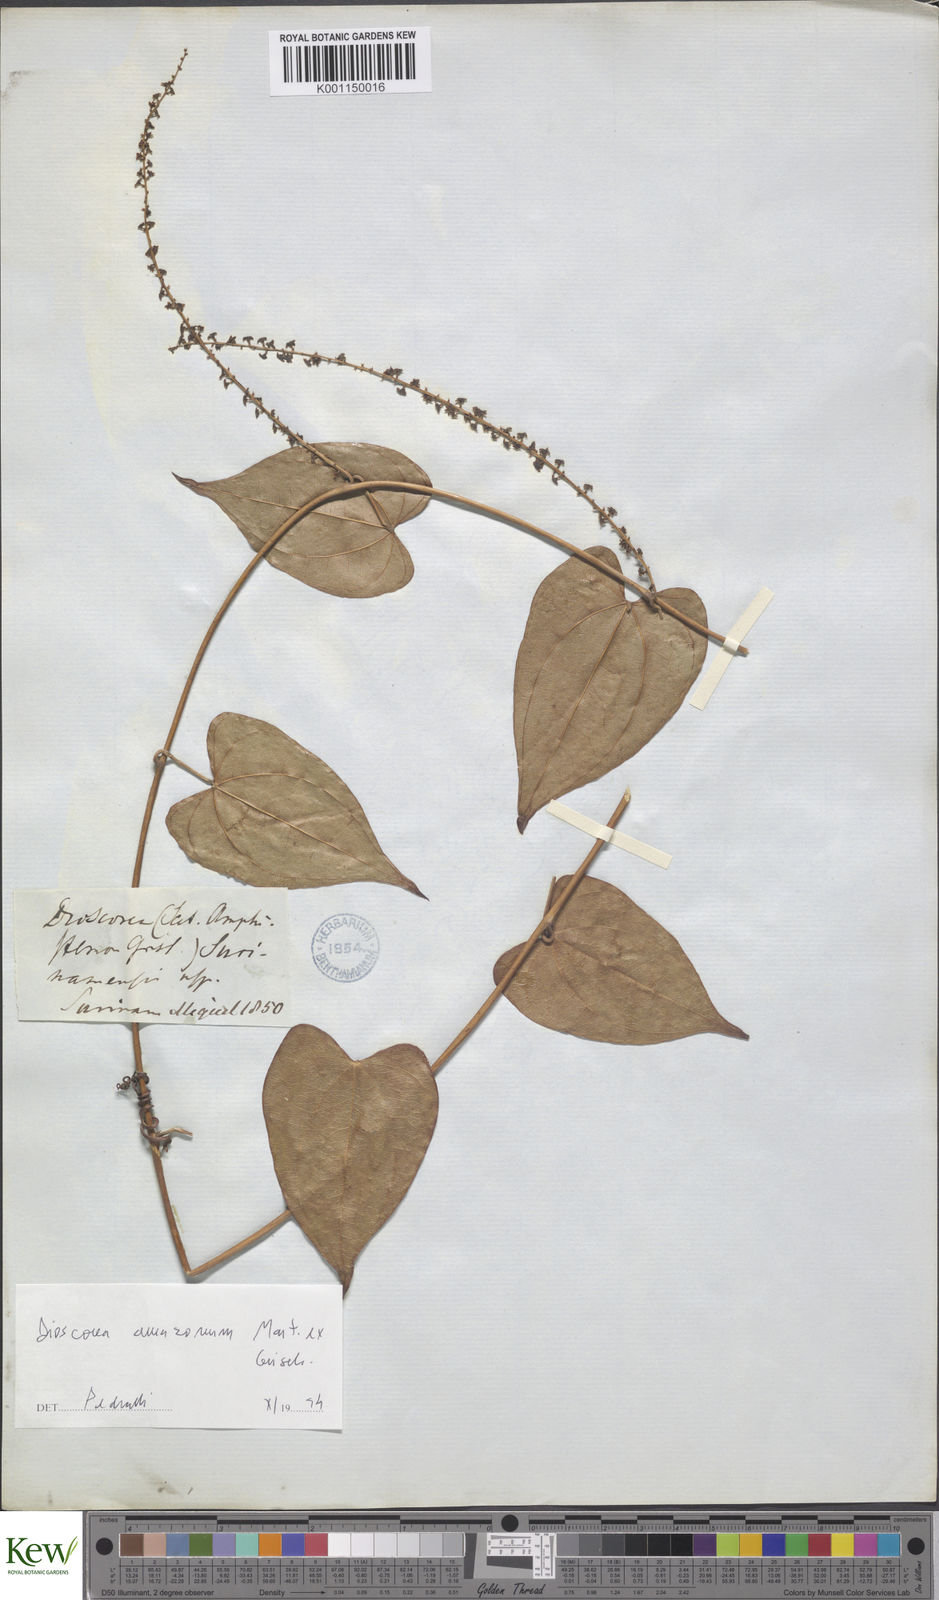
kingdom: Plantae
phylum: Tracheophyta
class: Liliopsida
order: Dioscoreales
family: Dioscoreaceae
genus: Dioscorea
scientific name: Dioscorea amazonum
